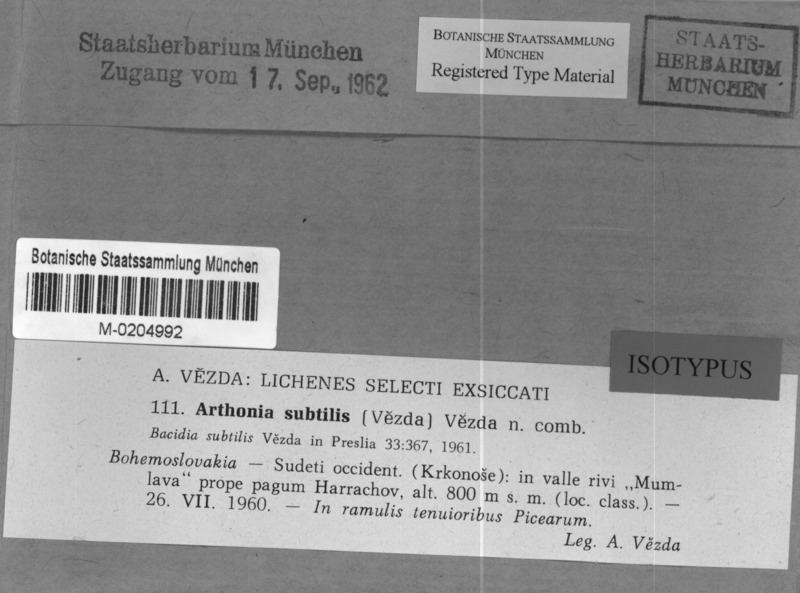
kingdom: Fungi
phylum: Ascomycota
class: Lecanoromycetes
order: Lecanorales
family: Byssolomataceae
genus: Fellhanera
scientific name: Fellhanera subtilis
